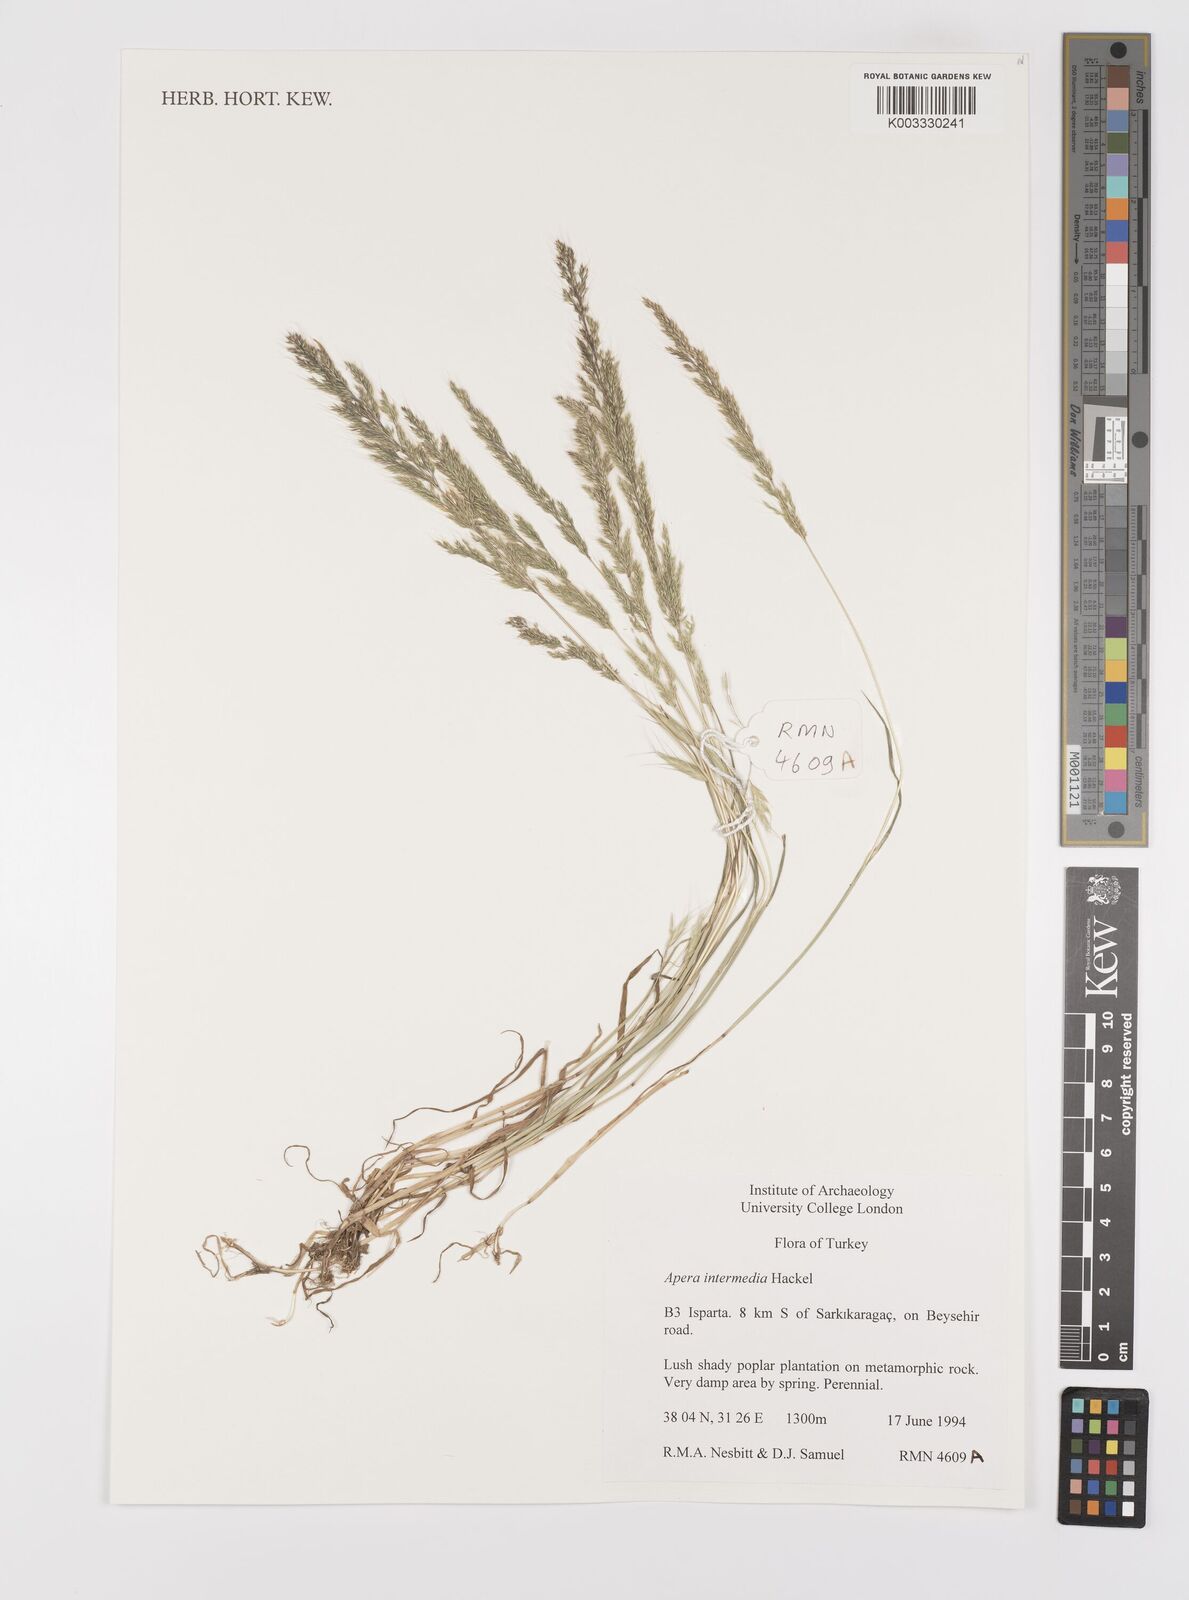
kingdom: Plantae
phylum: Tracheophyta
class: Liliopsida
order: Poales
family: Poaceae
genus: Apera
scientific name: Apera intermedia
